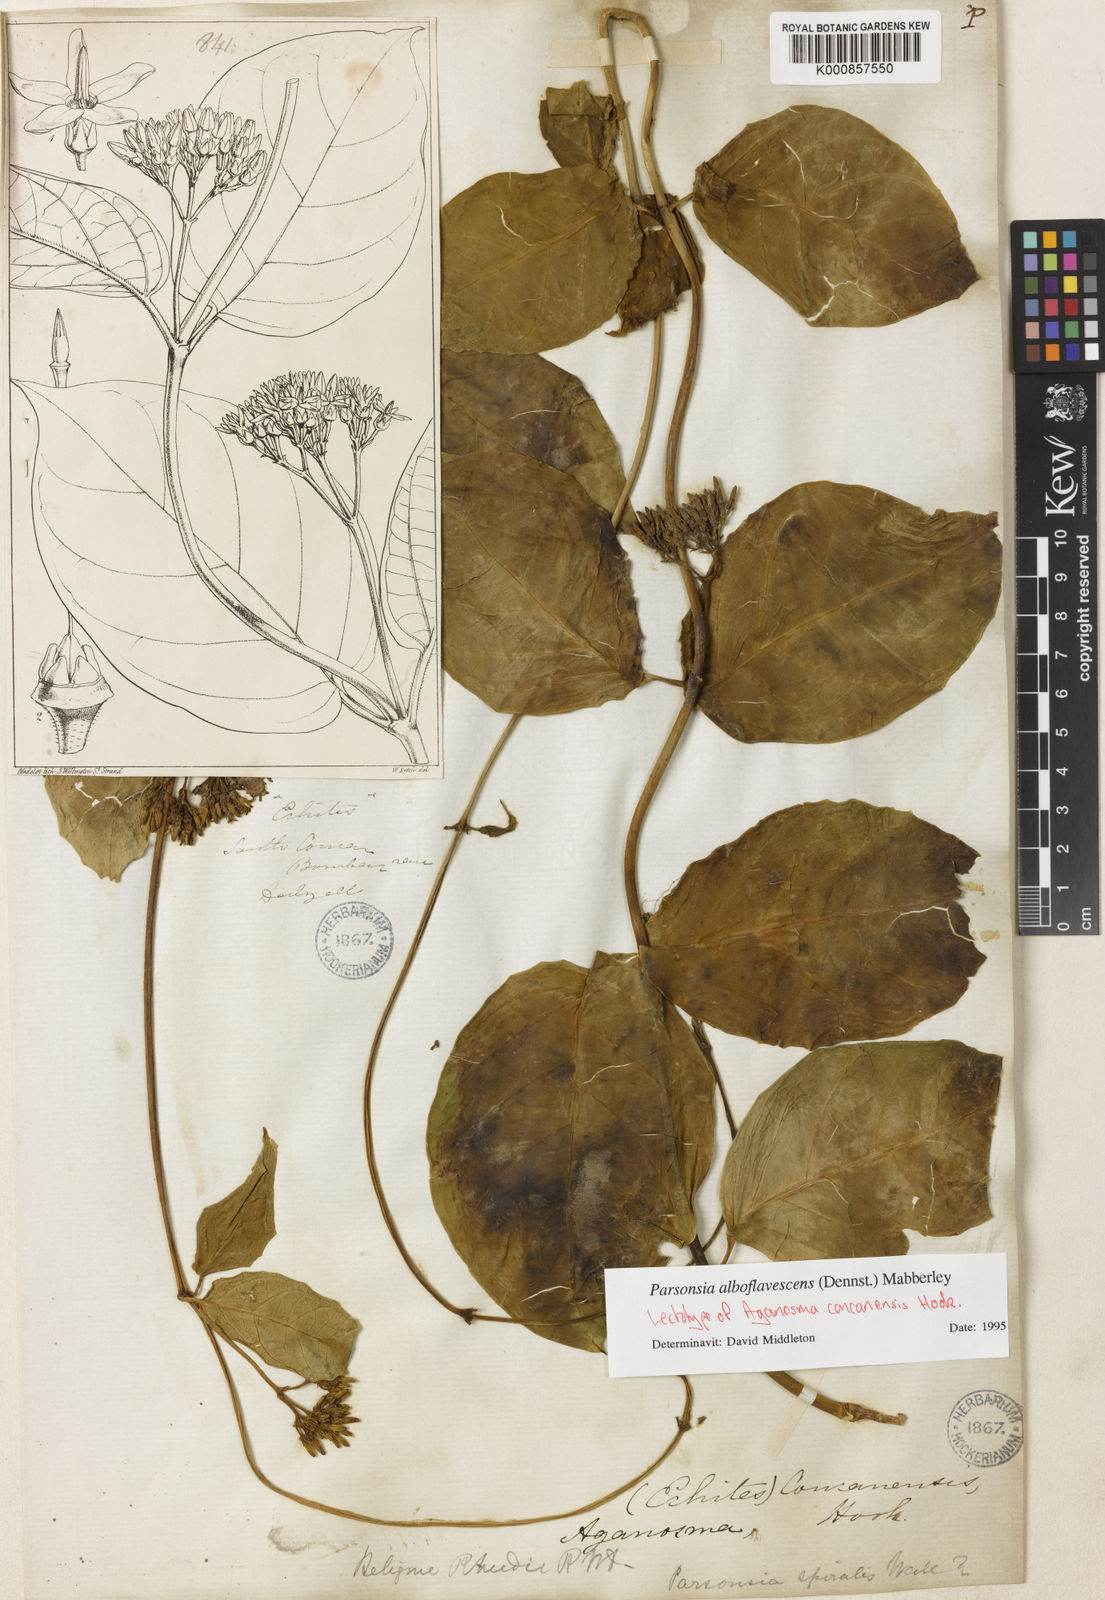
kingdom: Plantae
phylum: Tracheophyta
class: Magnoliopsida
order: Gentianales
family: Apocynaceae
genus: Parsonsia
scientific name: Parsonsia alboflavescens
